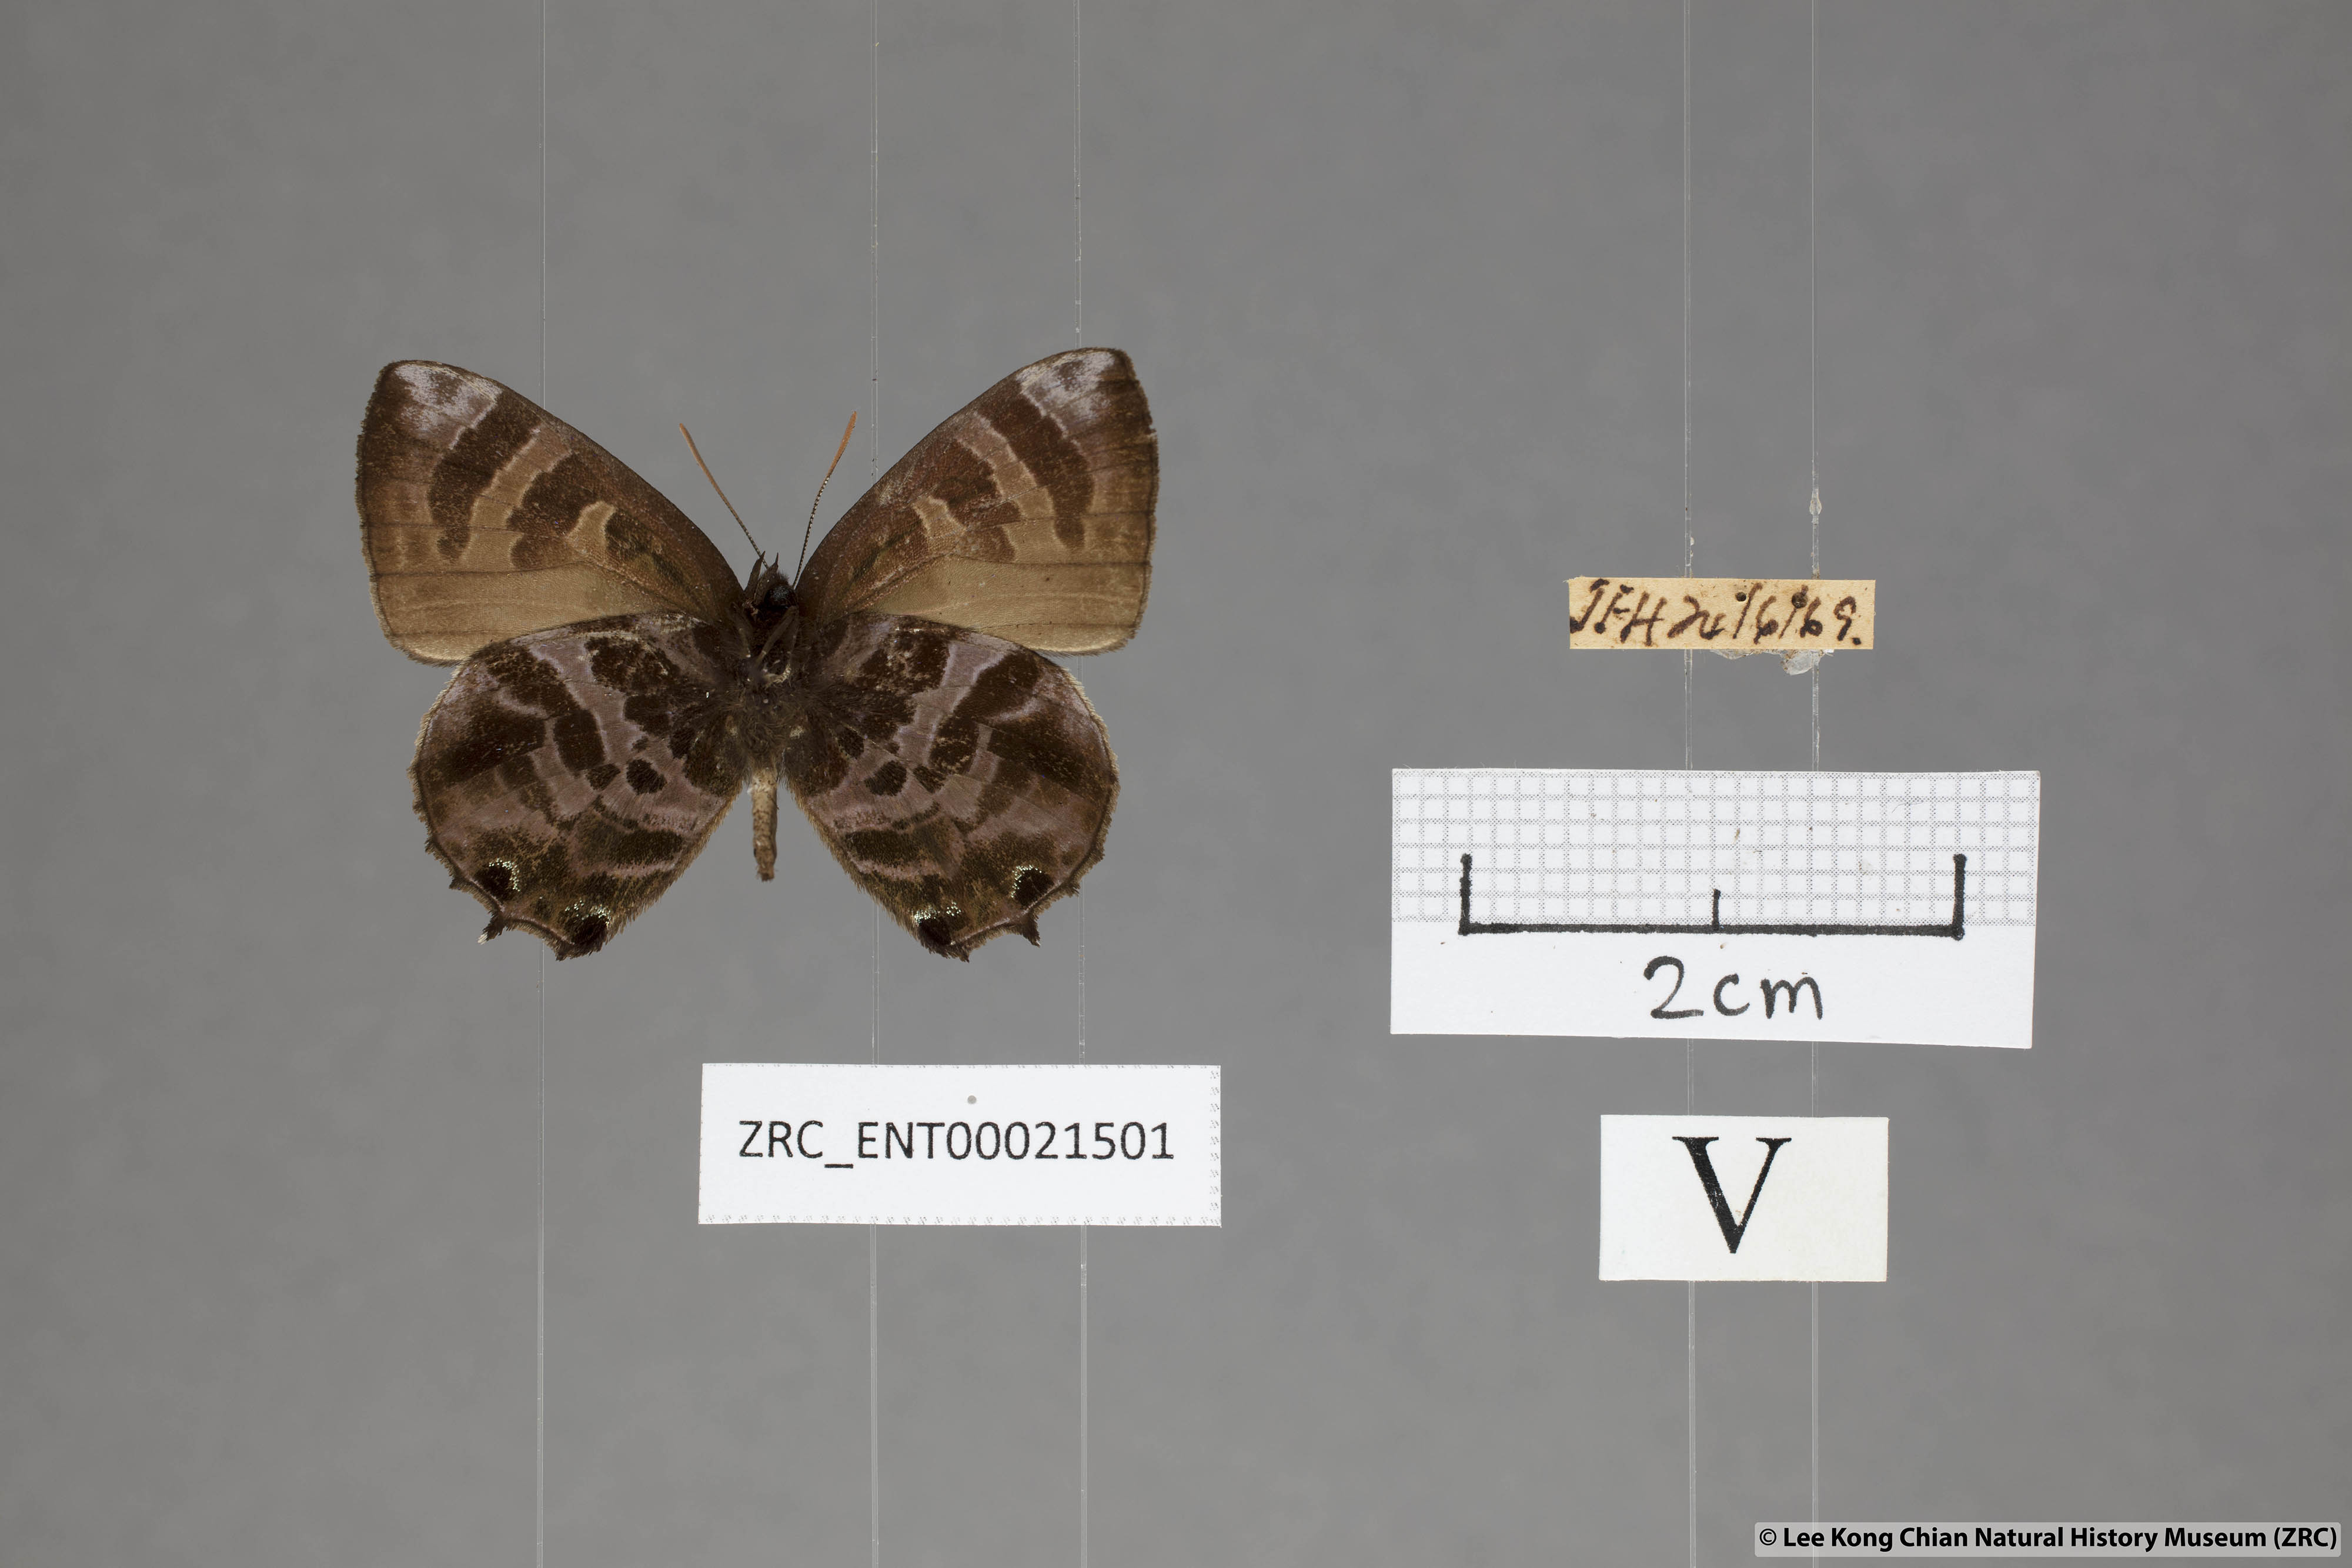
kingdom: Animalia
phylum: Arthropoda
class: Insecta
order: Lepidoptera
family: Lycaenidae
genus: Flos
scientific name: Flos
